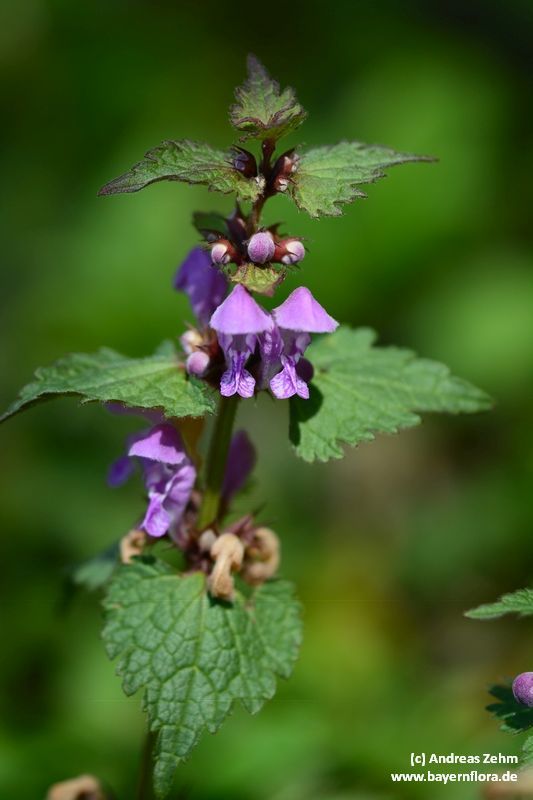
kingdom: Plantae
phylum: Tracheophyta
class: Magnoliopsida
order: Lamiales
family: Lamiaceae
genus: Lamium
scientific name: Lamium maculatum
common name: Spotted dead-nettle
